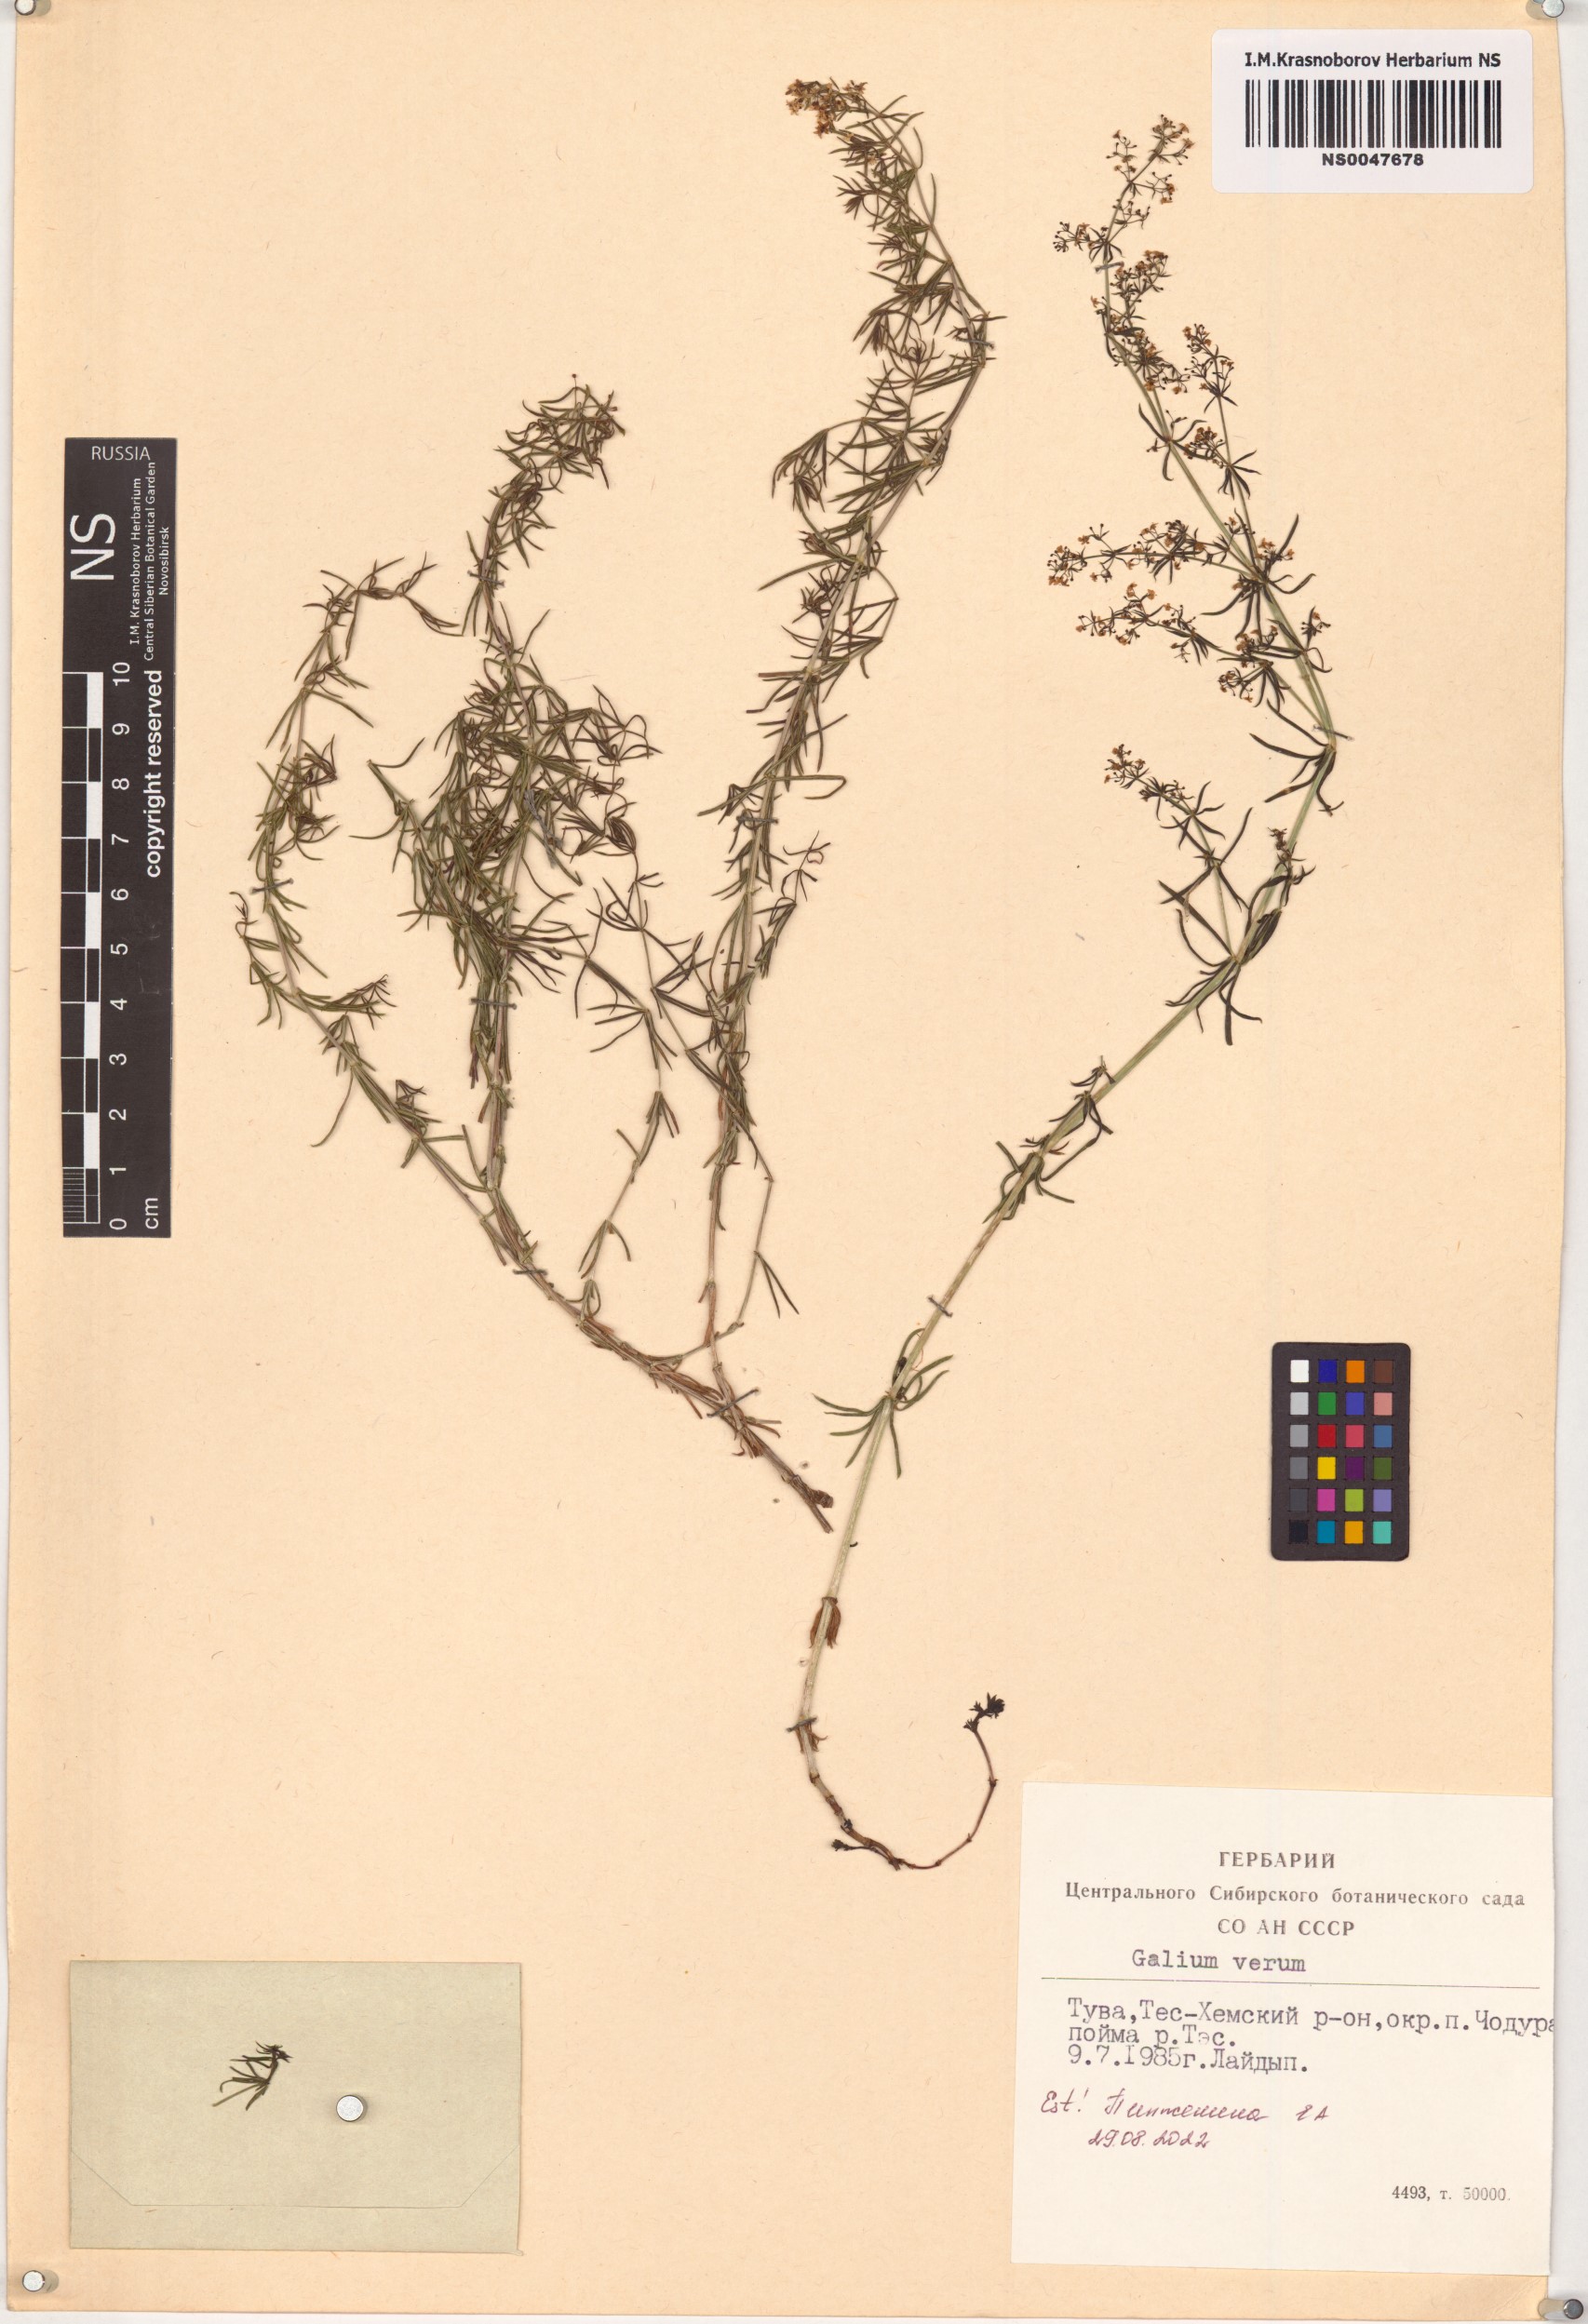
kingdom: Plantae
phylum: Tracheophyta
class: Magnoliopsida
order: Gentianales
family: Rubiaceae
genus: Galium
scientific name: Galium verum
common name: Lady's bedstraw
